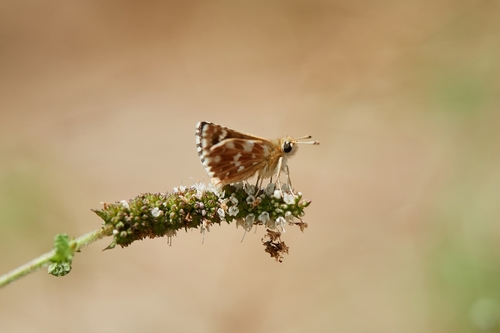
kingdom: Animalia
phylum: Arthropoda
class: Insecta
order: Lepidoptera
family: Hesperiidae
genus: Spialia
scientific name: Spialia sertorius
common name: Red underwing skipper
